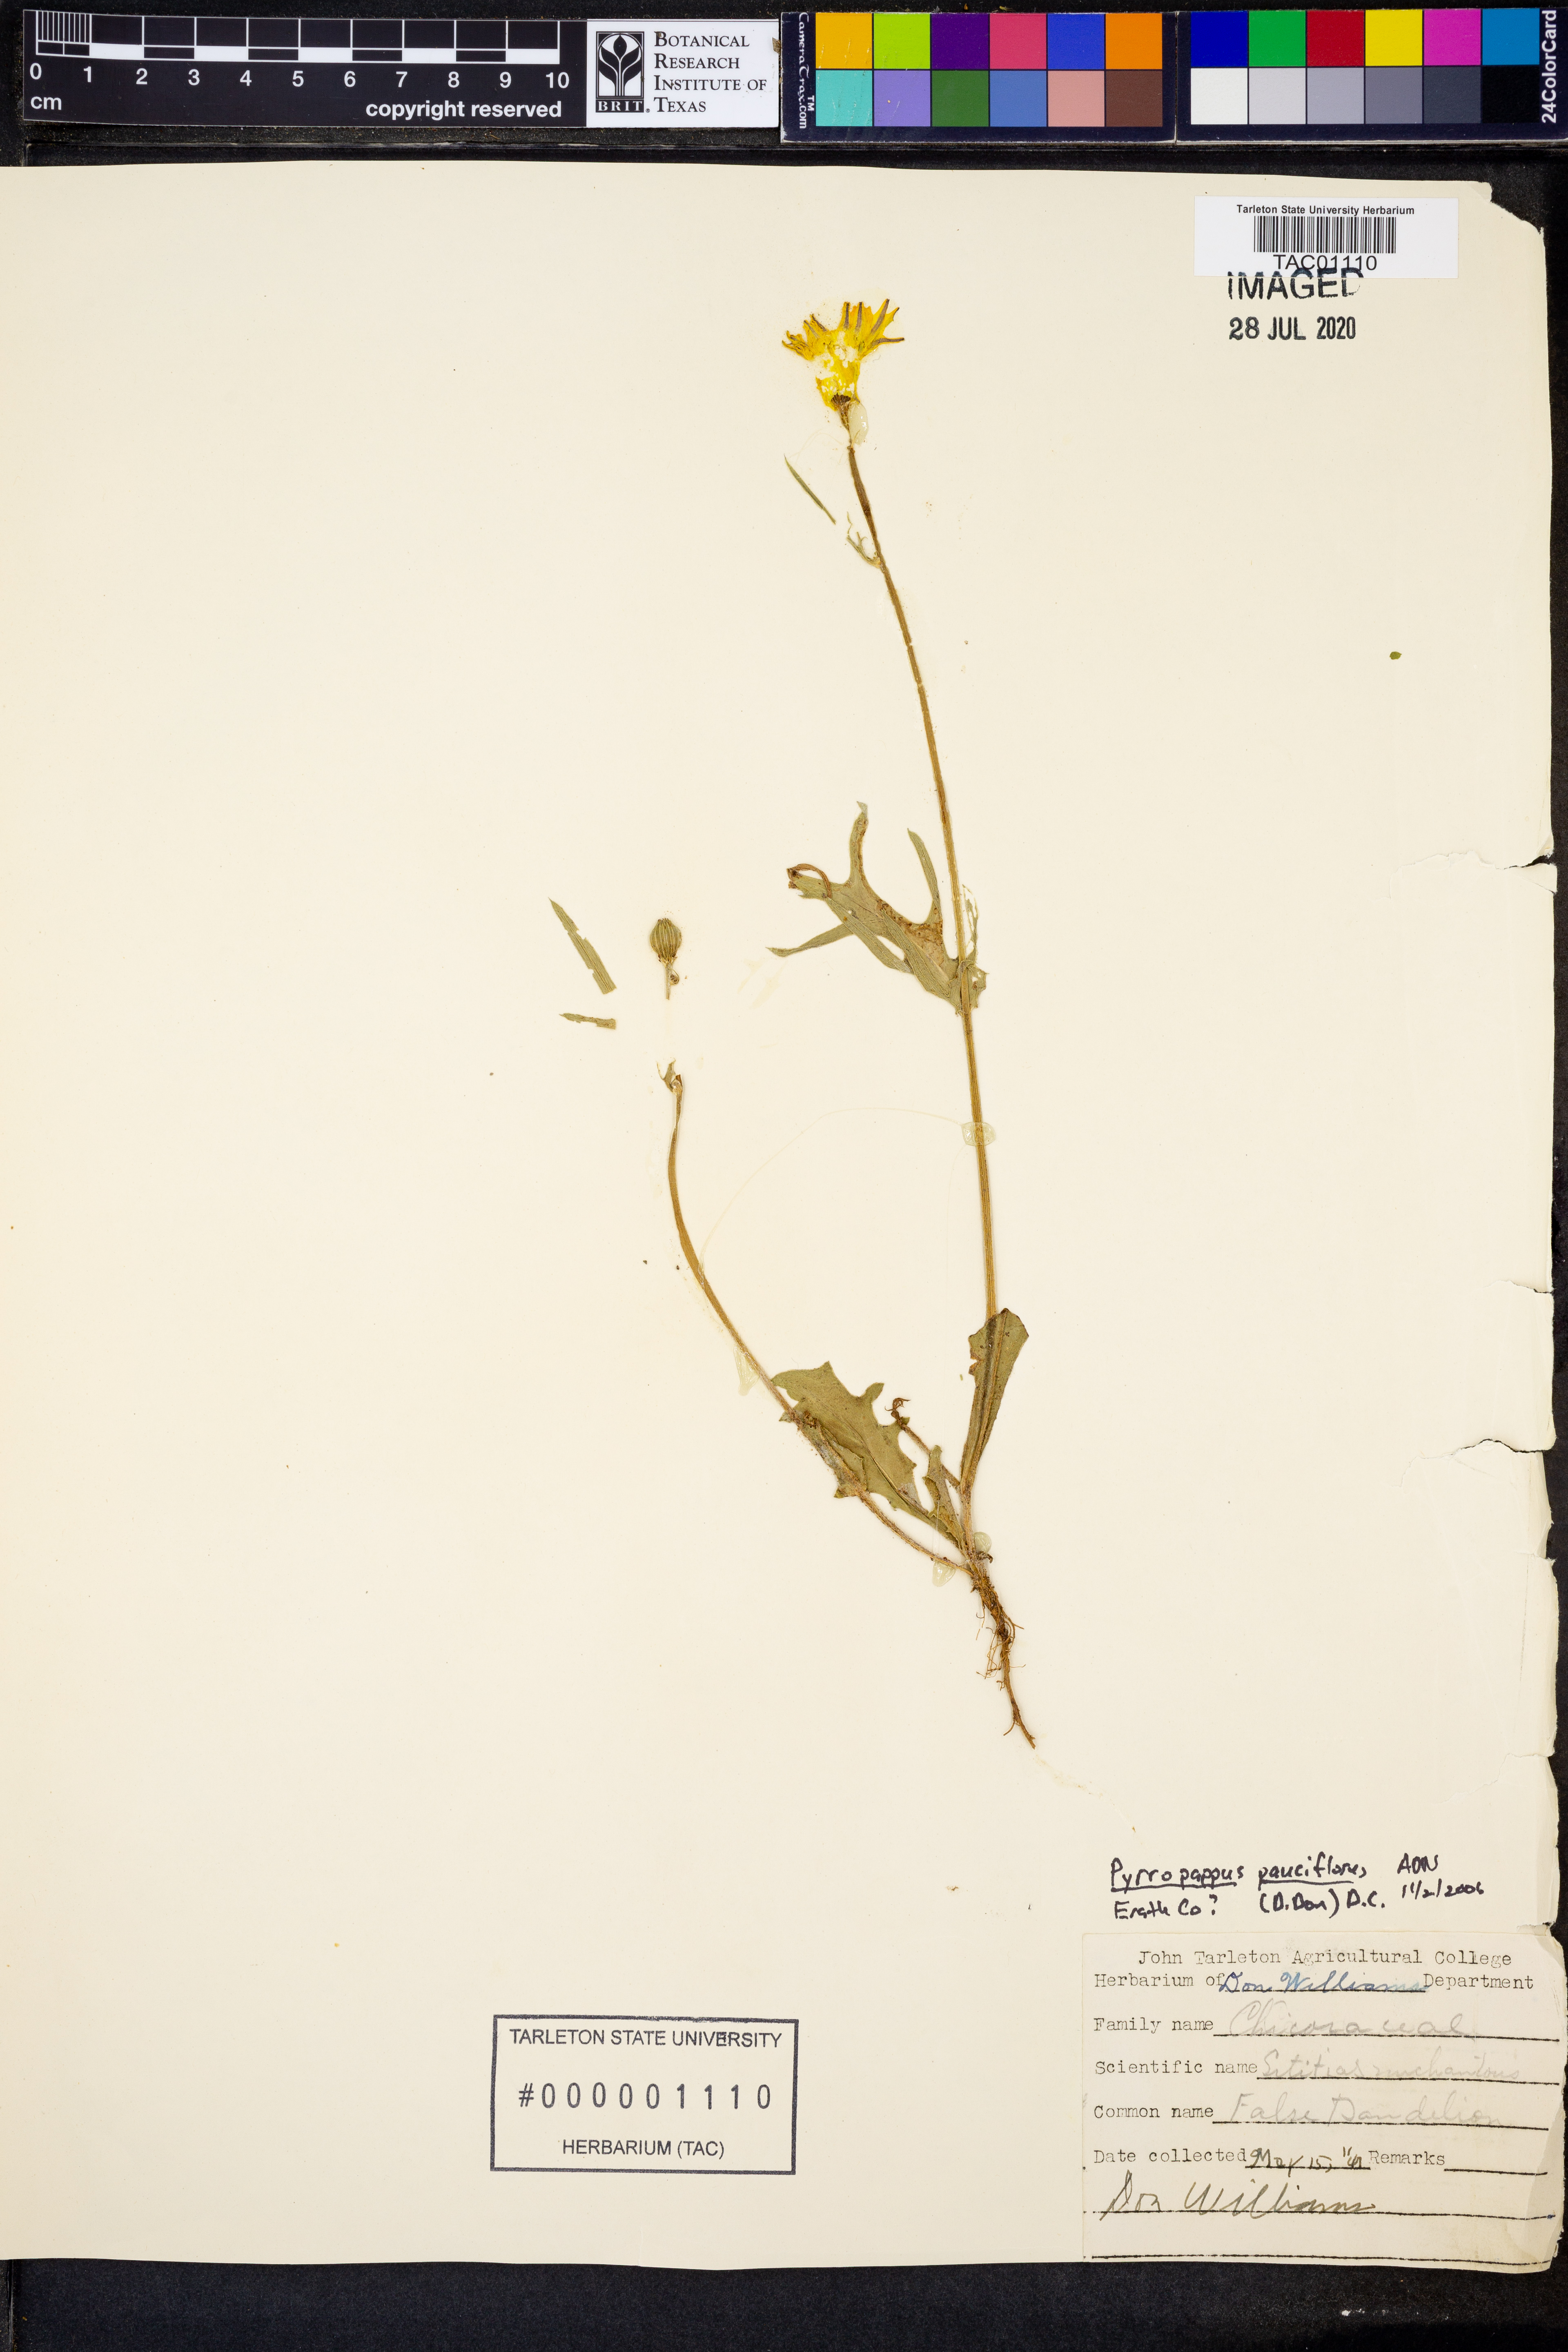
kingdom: Plantae
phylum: Tracheophyta
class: Magnoliopsida
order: Asterales
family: Asteraceae
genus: Pyrrhopappus
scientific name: Pyrrhopappus pauciflorus
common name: Texas false dandelion
